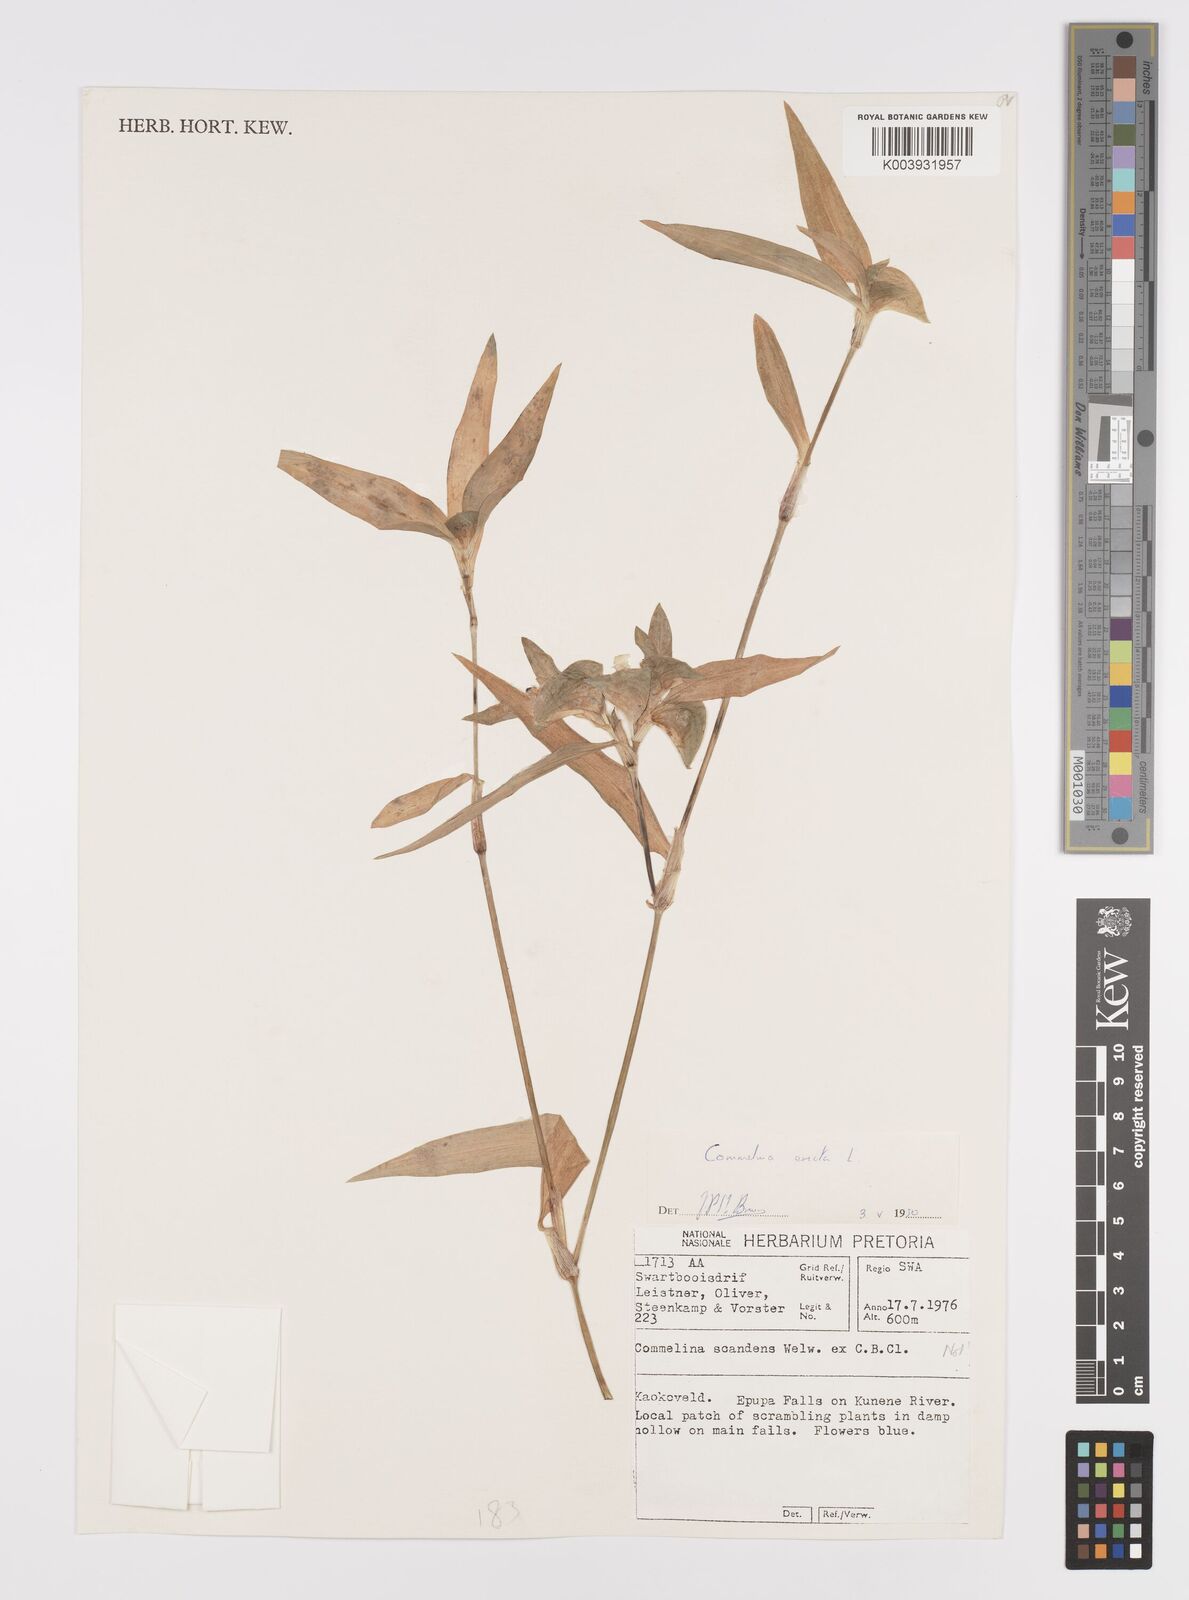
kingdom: Plantae
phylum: Tracheophyta
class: Liliopsida
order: Commelinales
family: Commelinaceae
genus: Commelina
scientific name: Commelina erecta
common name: Blousel blommetjie
